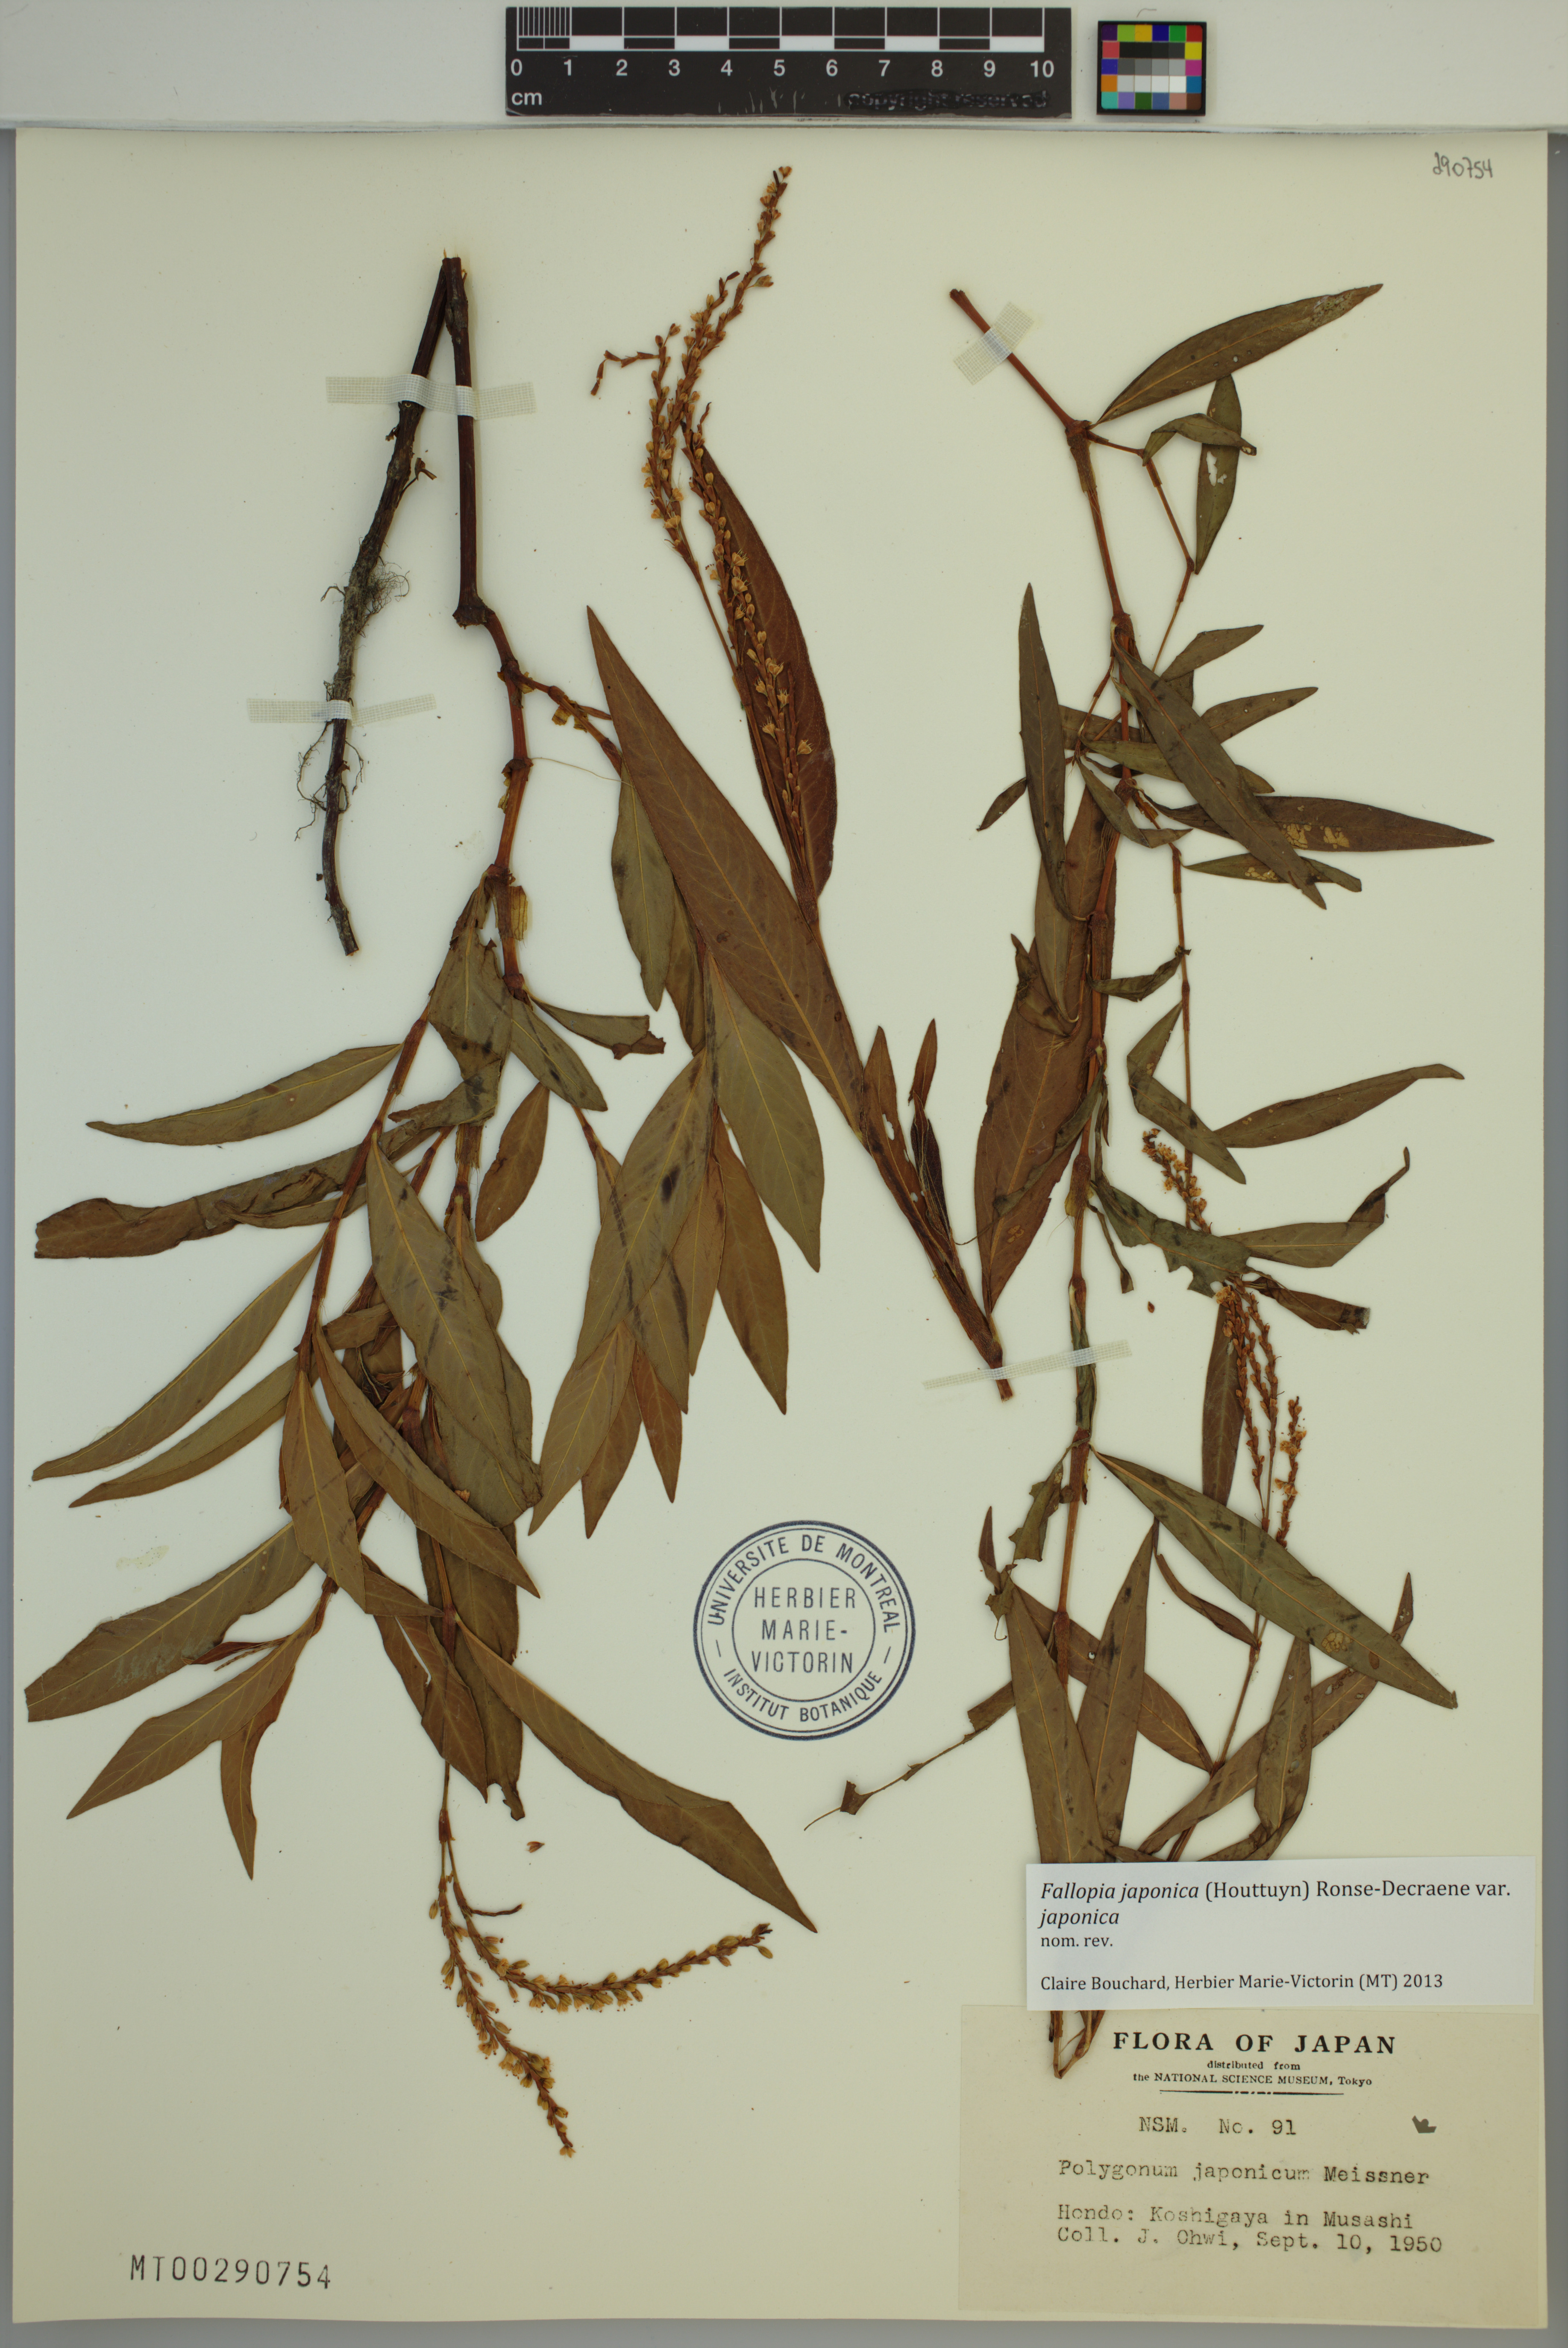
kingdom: Plantae
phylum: Tracheophyta
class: Magnoliopsida
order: Caryophyllales
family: Polygonaceae
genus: Reynoutria
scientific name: Reynoutria japonica
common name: Japanese knotweed
